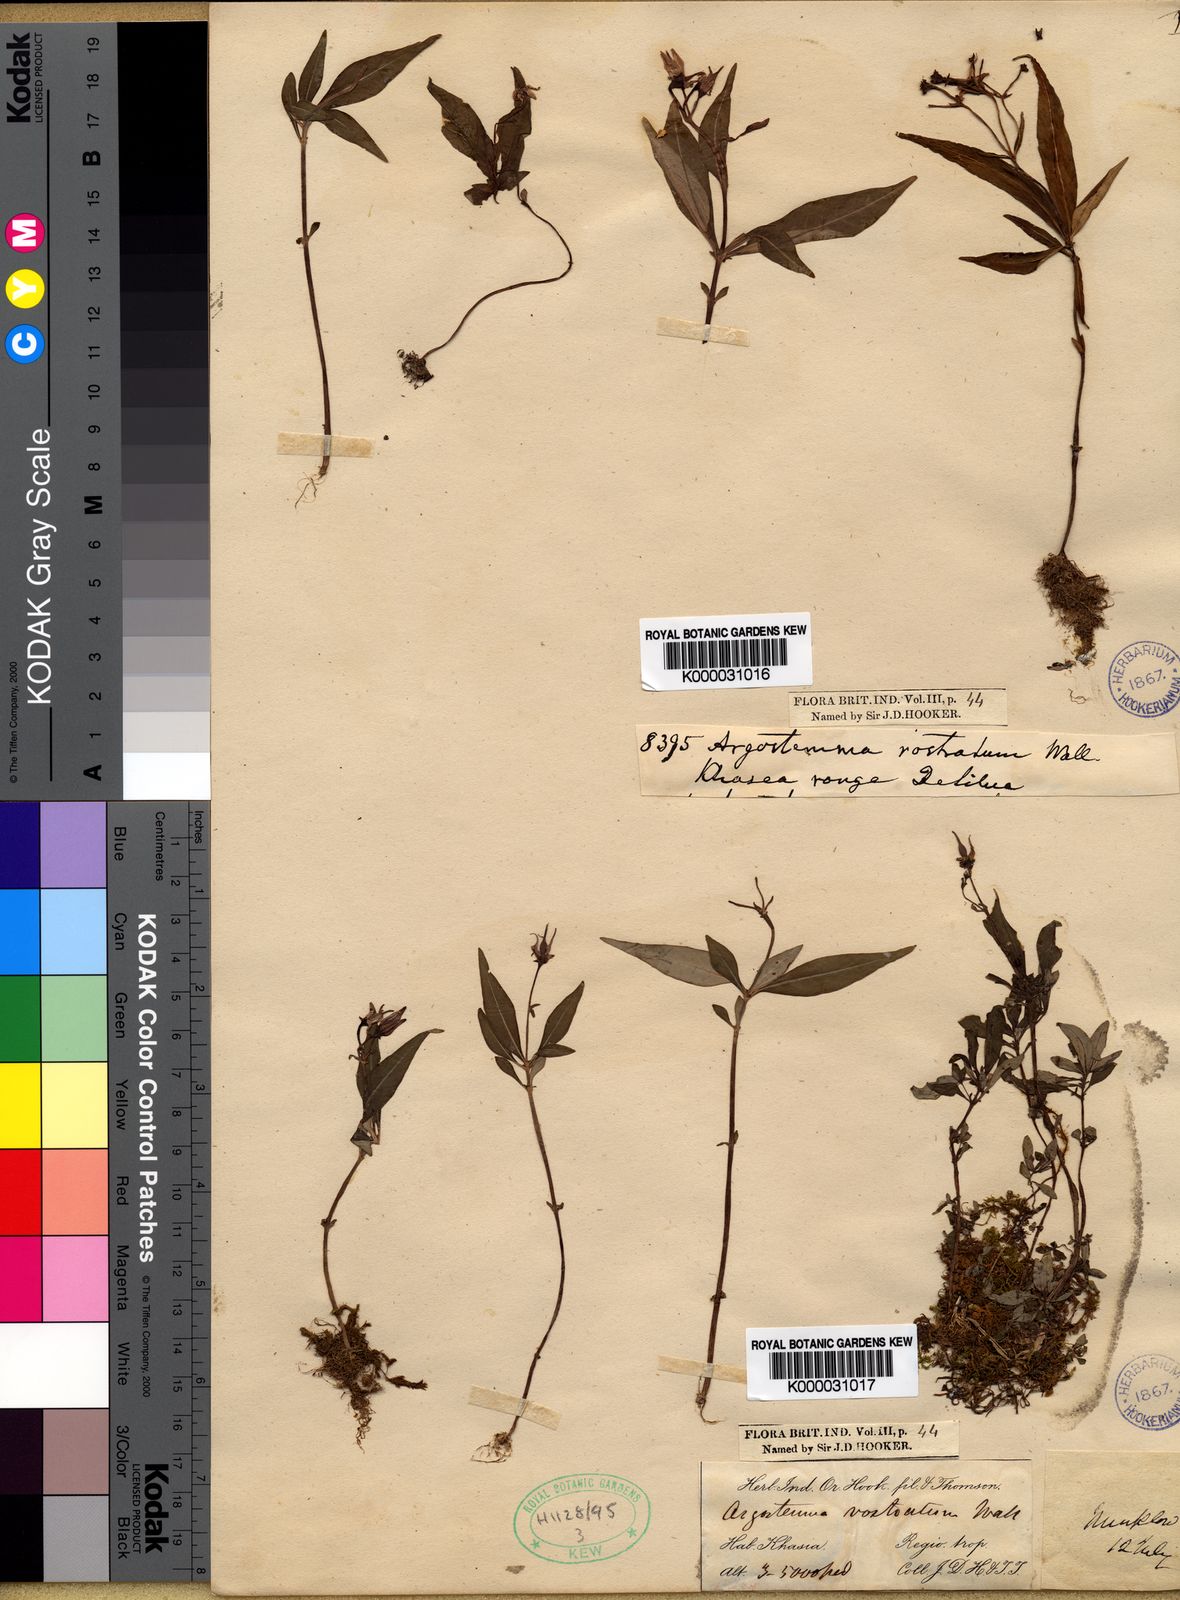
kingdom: Plantae
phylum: Tracheophyta
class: Magnoliopsida
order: Gentianales
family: Rubiaceae
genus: Argostemma
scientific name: Argostemma rostratum
